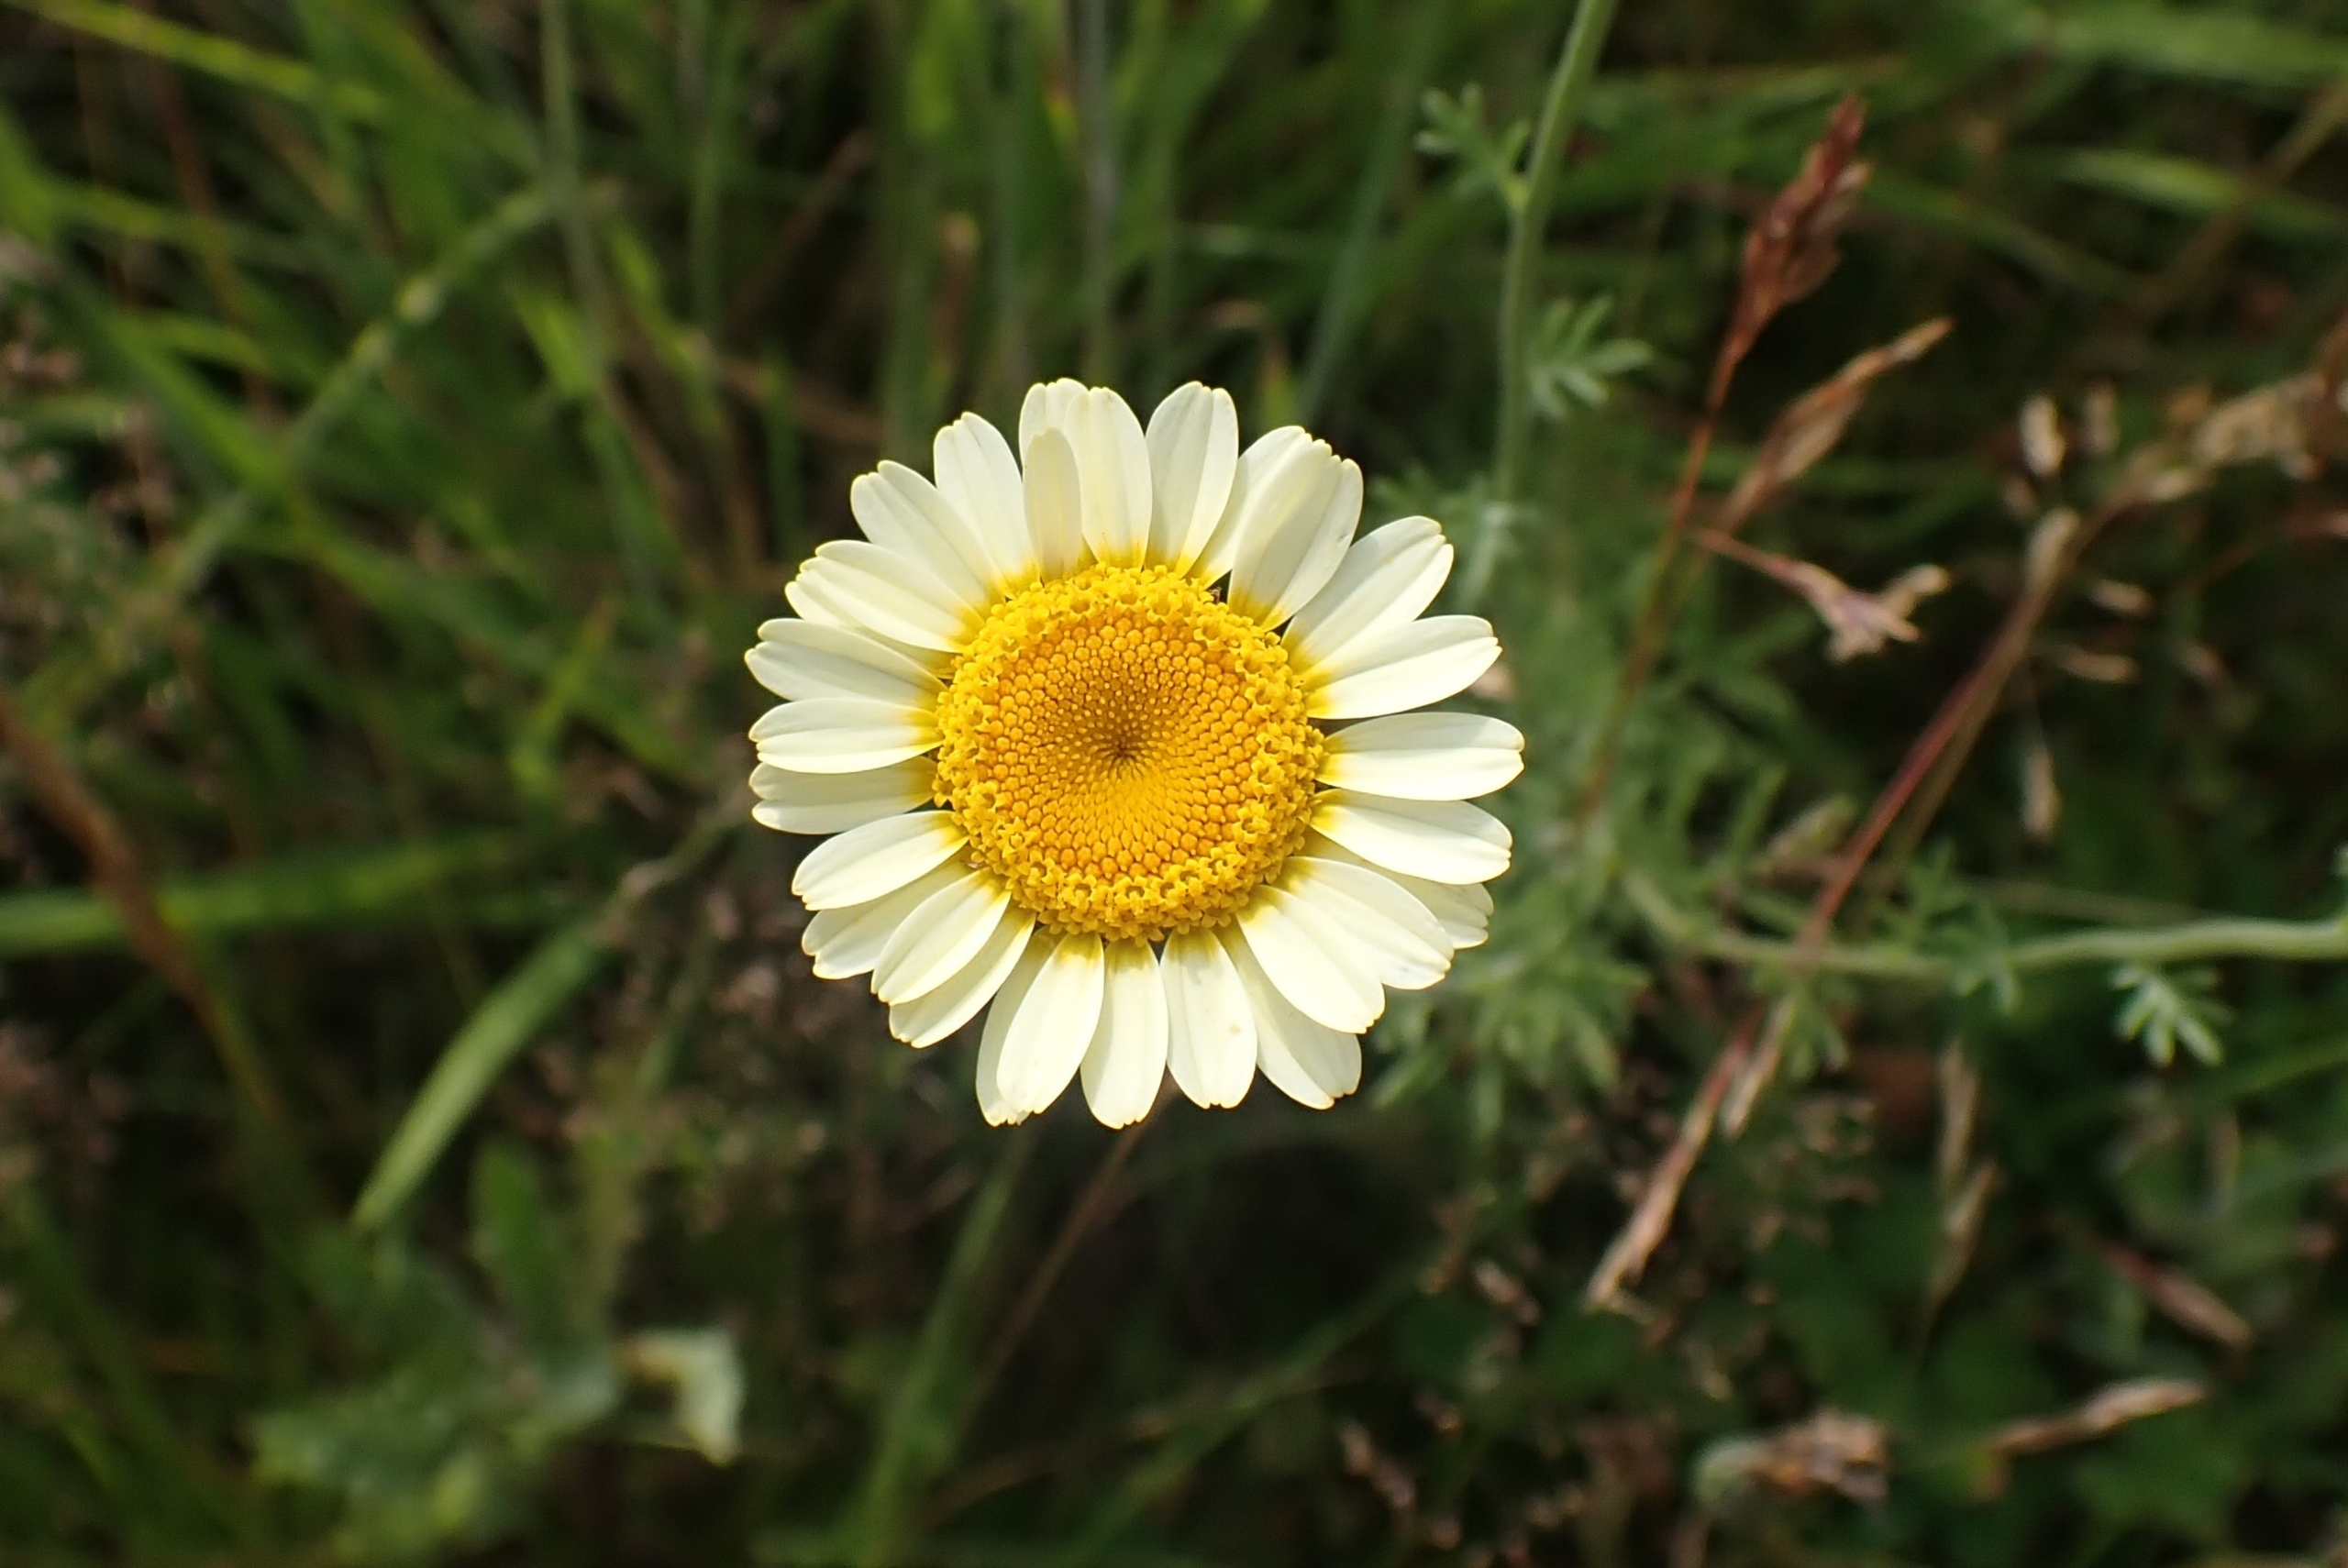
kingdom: Plantae
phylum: Tracheophyta
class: Magnoliopsida
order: Asterales
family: Asteraceae
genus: Glebionis
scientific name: Glebionis carinata
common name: Flerfarvet okseøje
